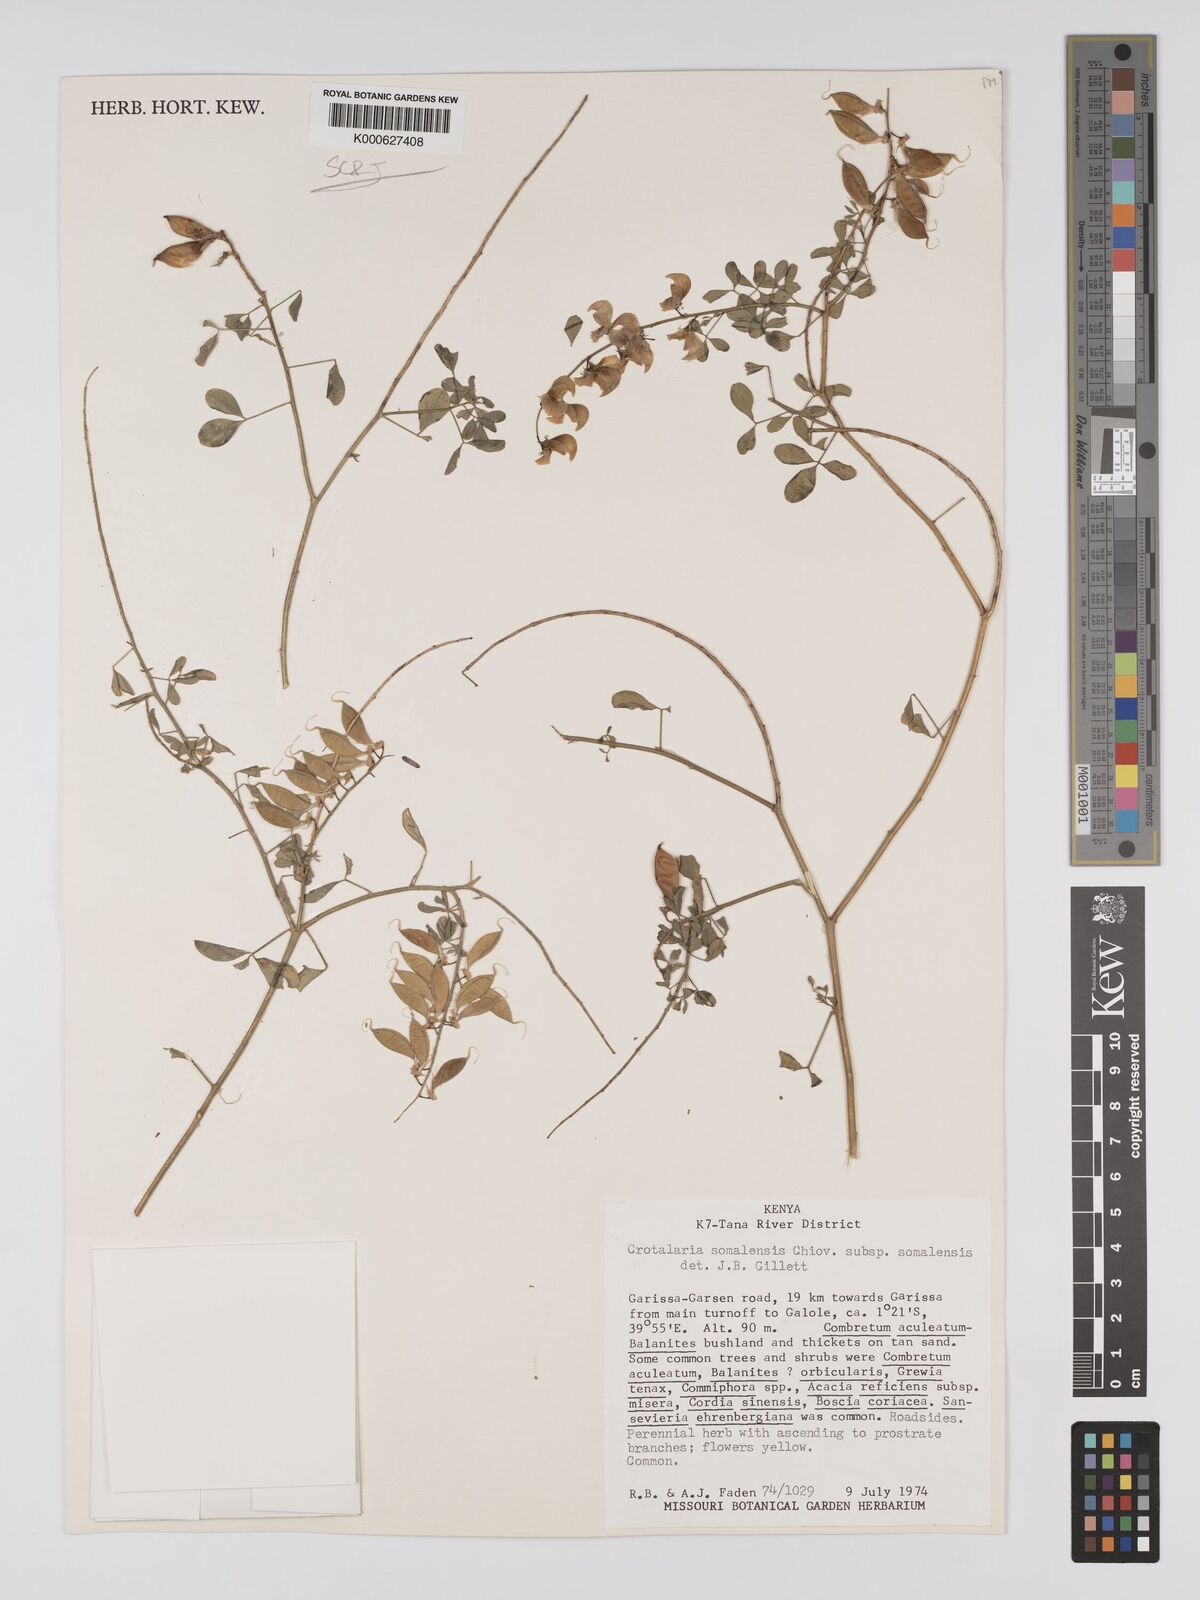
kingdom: Plantae
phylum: Tracheophyta
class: Magnoliopsida
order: Fabales
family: Fabaceae
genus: Crotalaria
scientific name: Crotalaria
